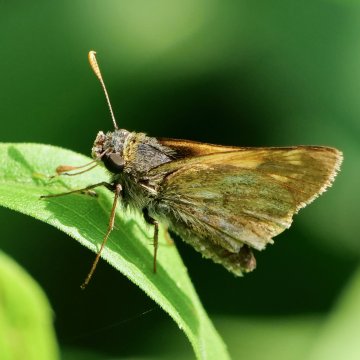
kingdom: Animalia
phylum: Arthropoda
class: Insecta
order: Lepidoptera
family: Hesperiidae
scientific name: Hesperiidae
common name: Skippers
